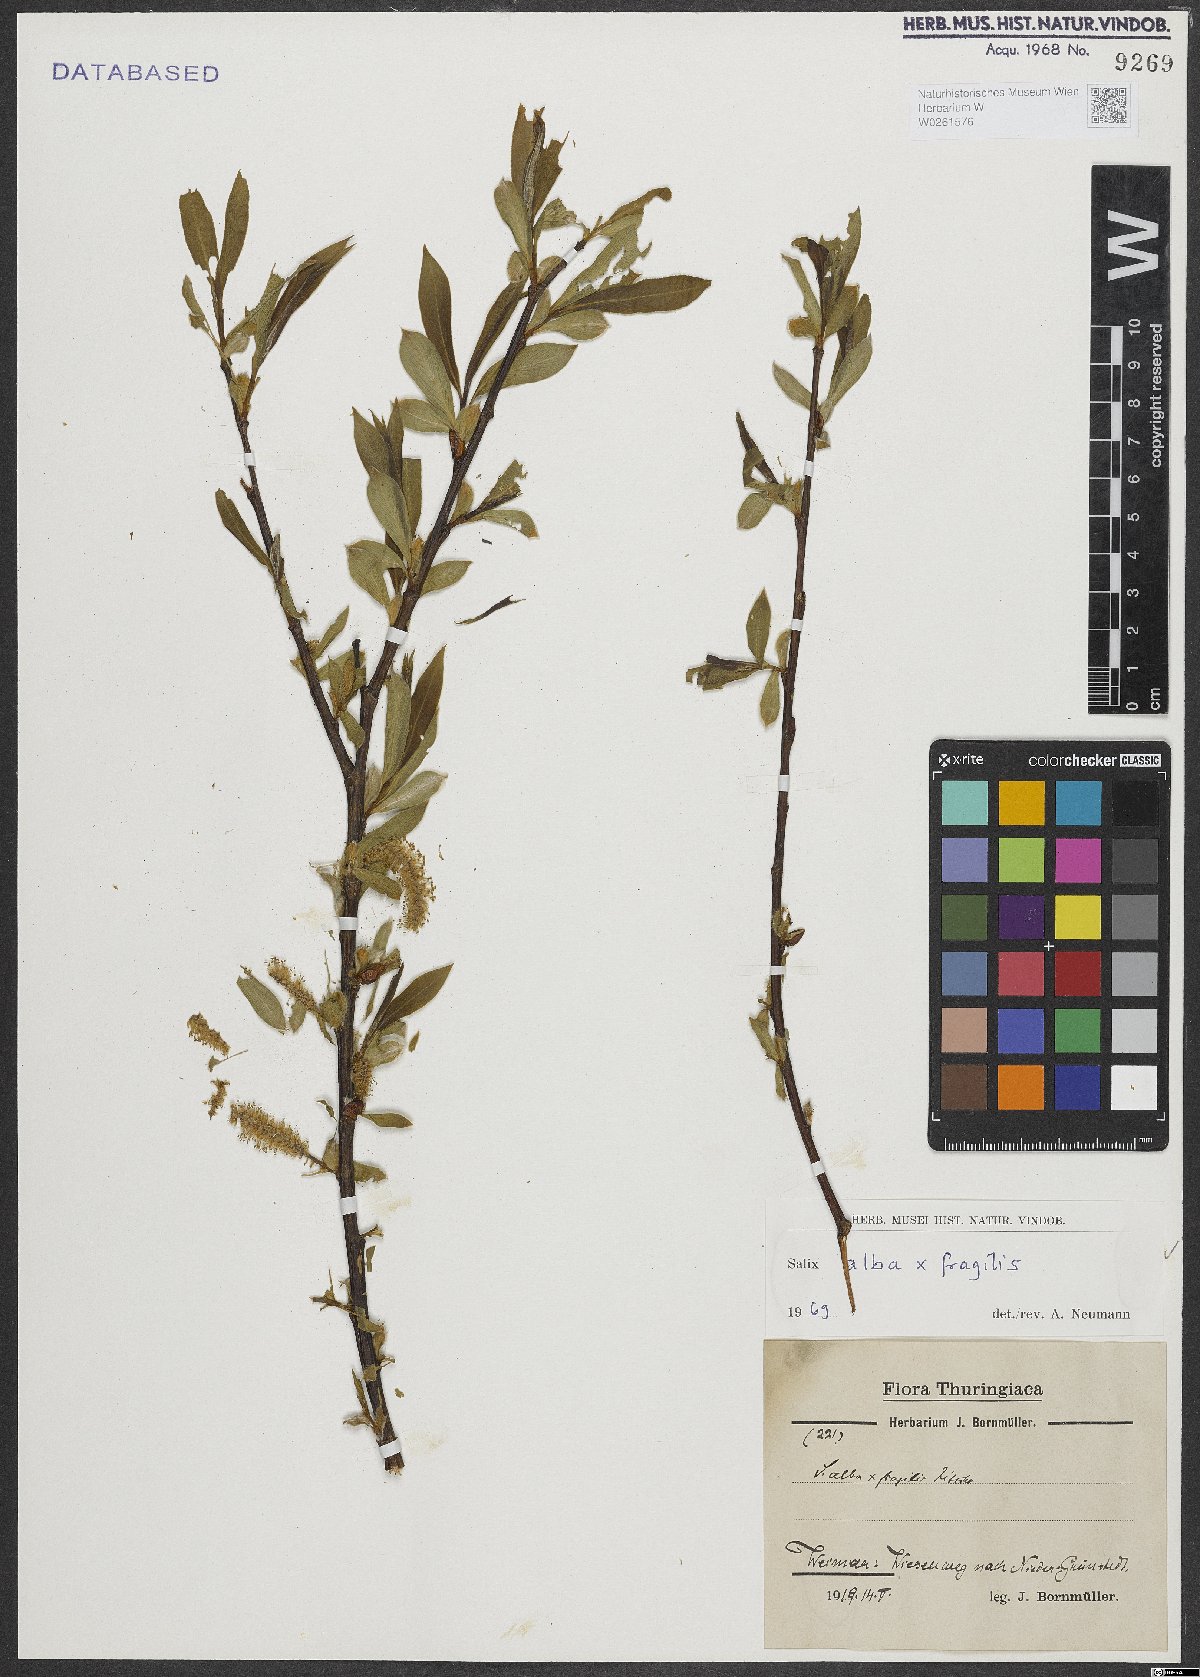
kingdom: Plantae
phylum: Tracheophyta
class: Magnoliopsida
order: Malpighiales
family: Salicaceae
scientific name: Salicaceae
